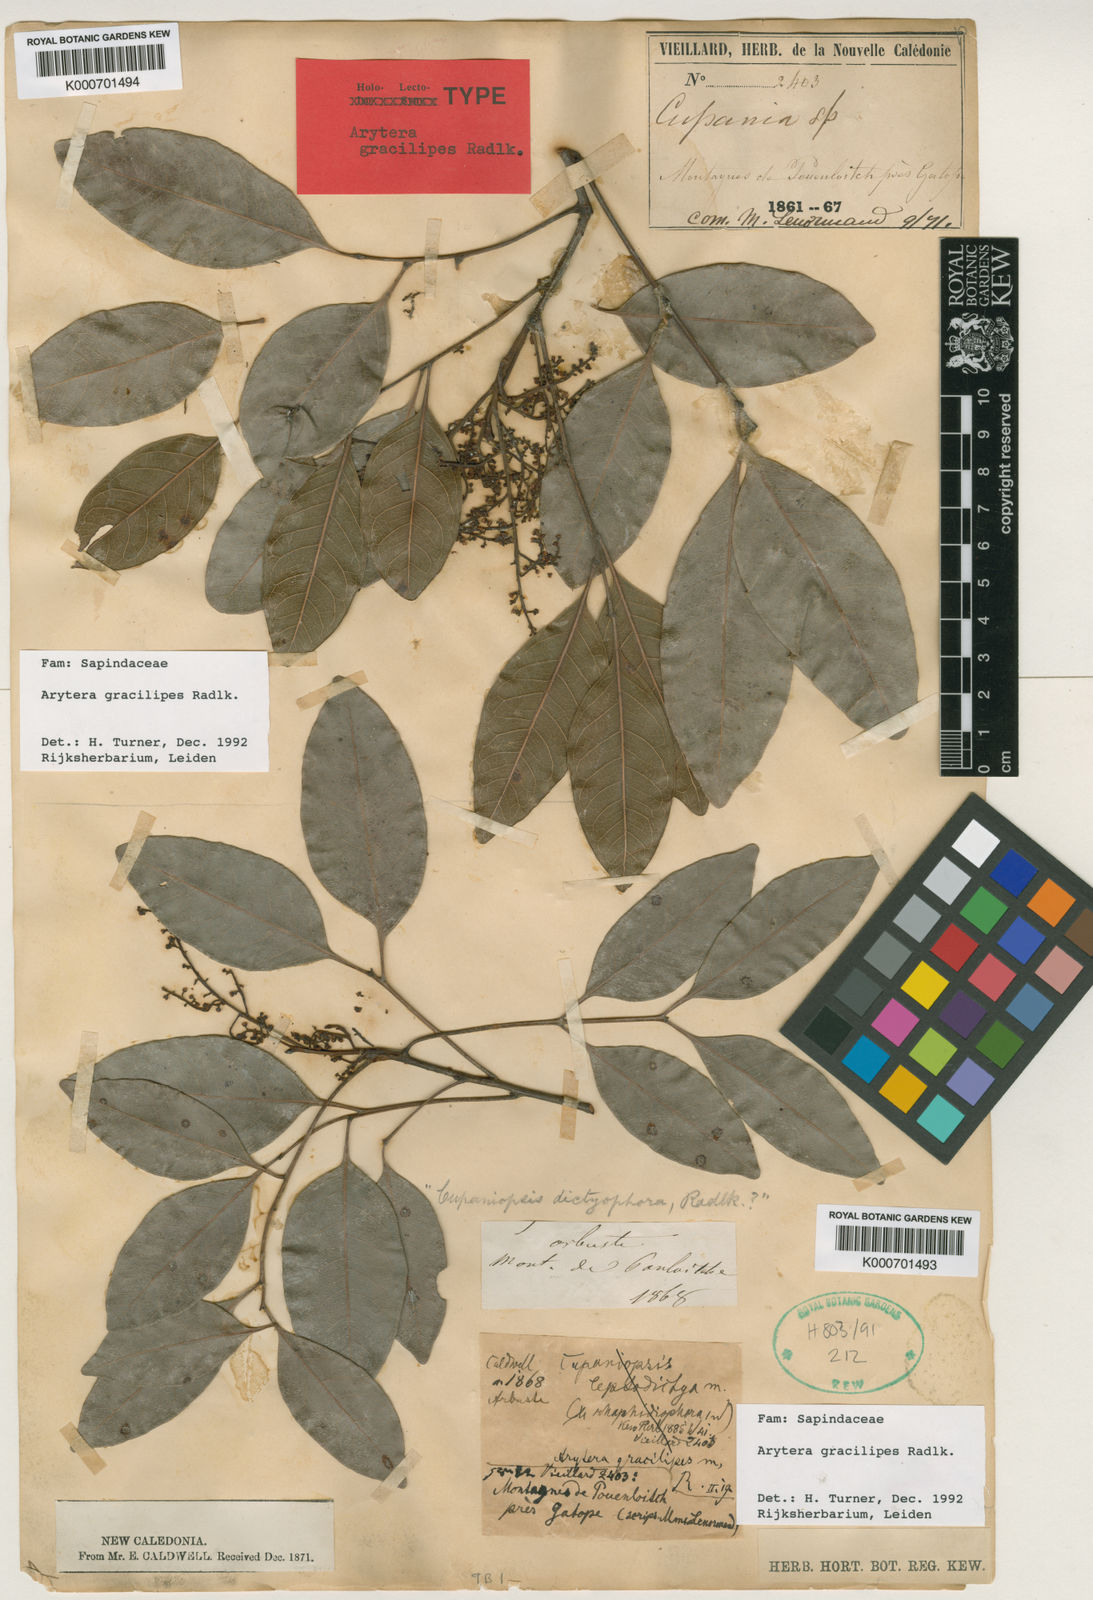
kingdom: Plantae
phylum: Tracheophyta
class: Magnoliopsida
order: Sapindales
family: Sapindaceae
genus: Lepidocupania
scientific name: Lepidocupania gracilipes
